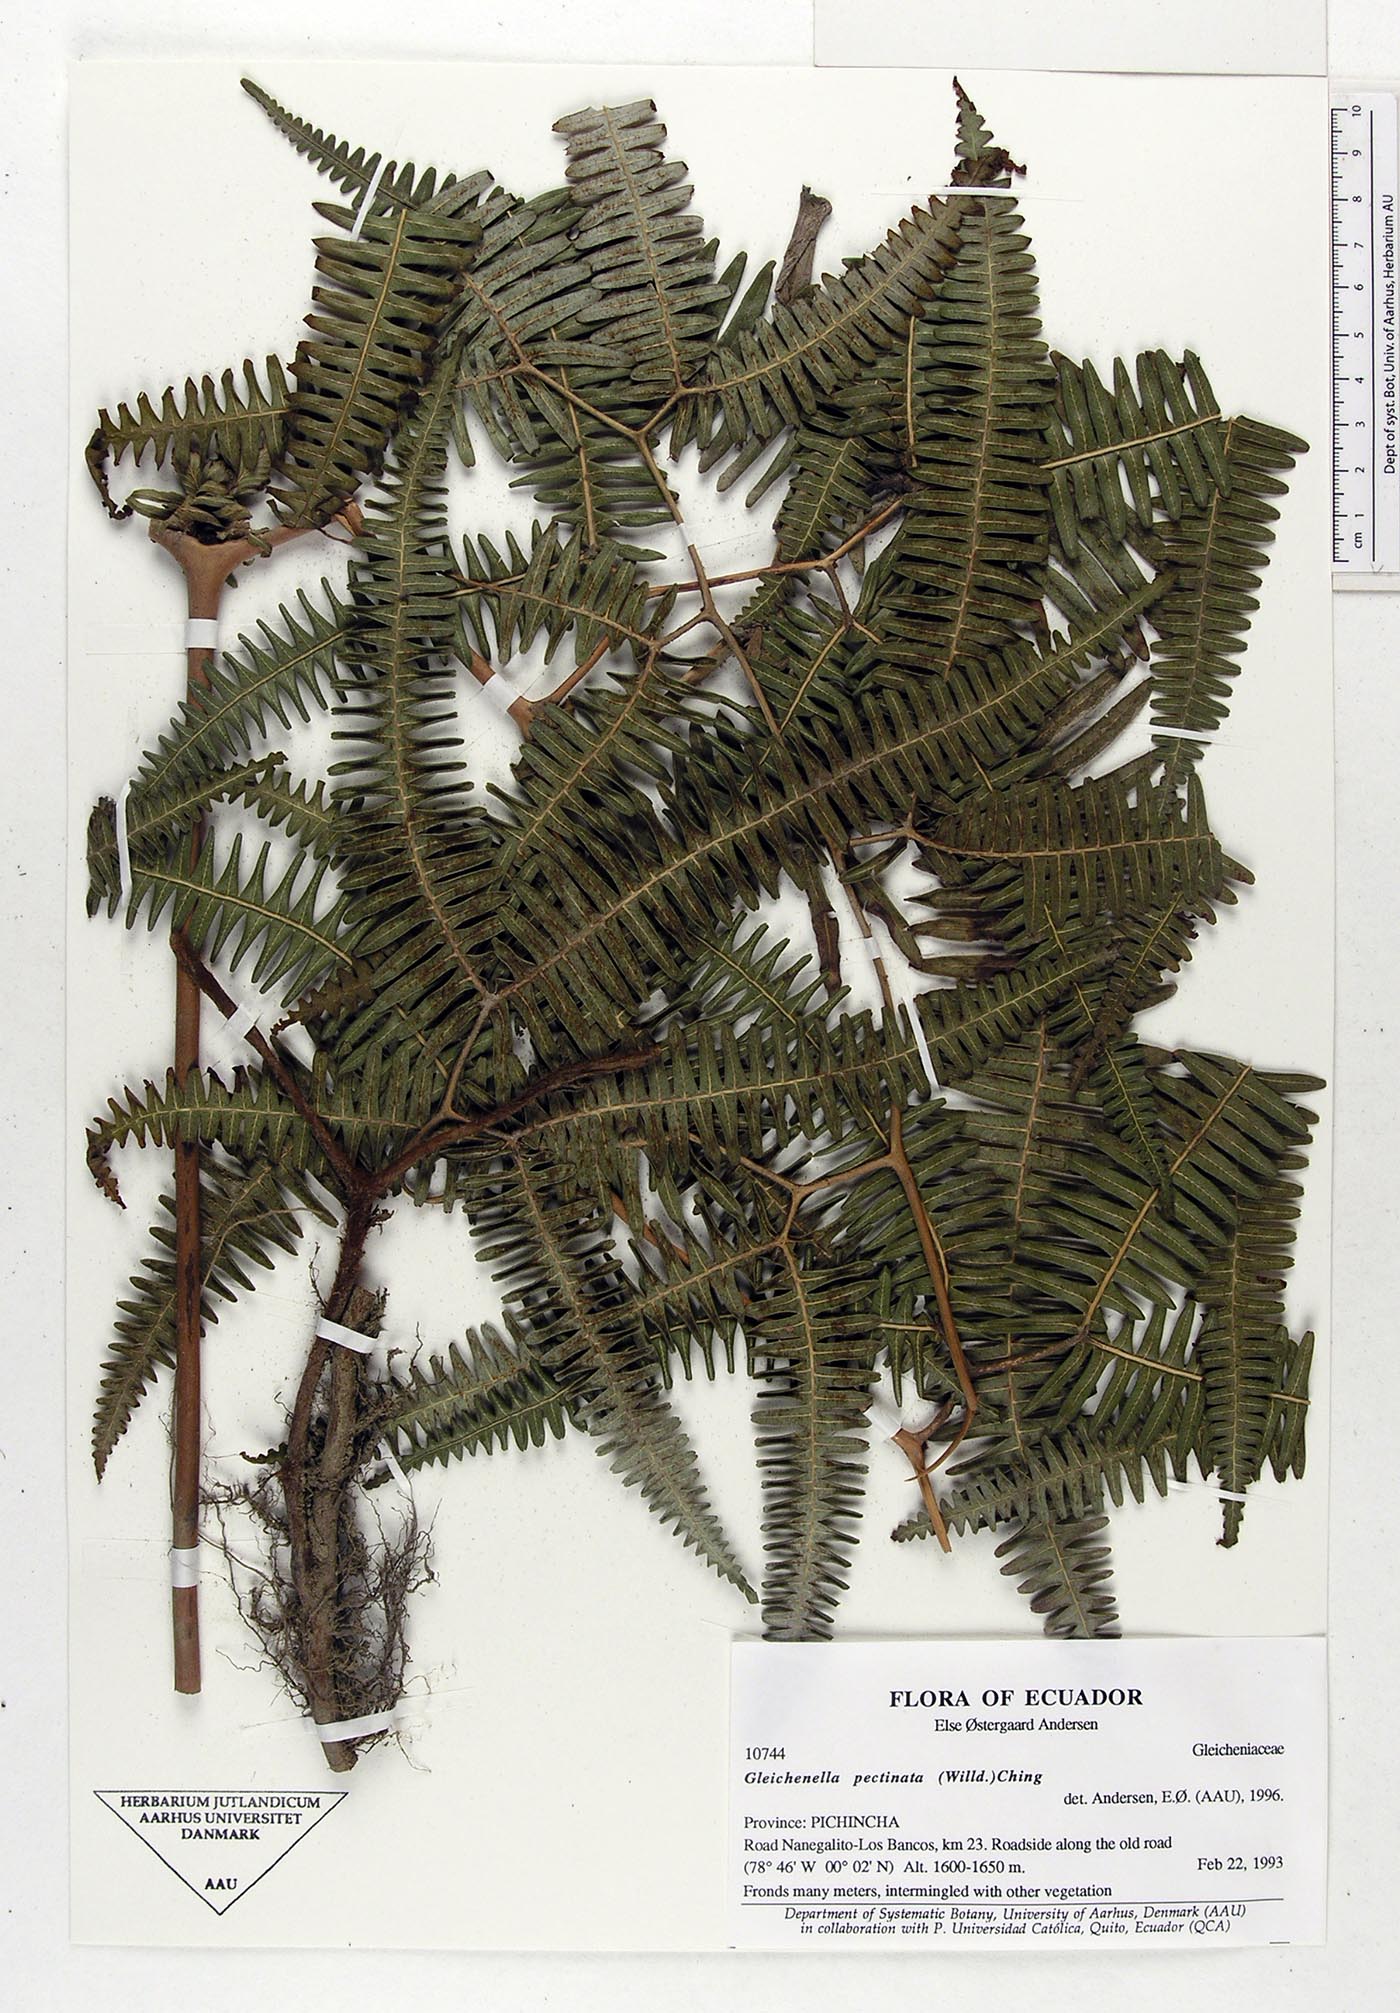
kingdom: Plantae
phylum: Tracheophyta
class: Polypodiopsida
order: Gleicheniales
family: Gleicheniaceae
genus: Gleichenella
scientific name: Gleichenella pectinata
